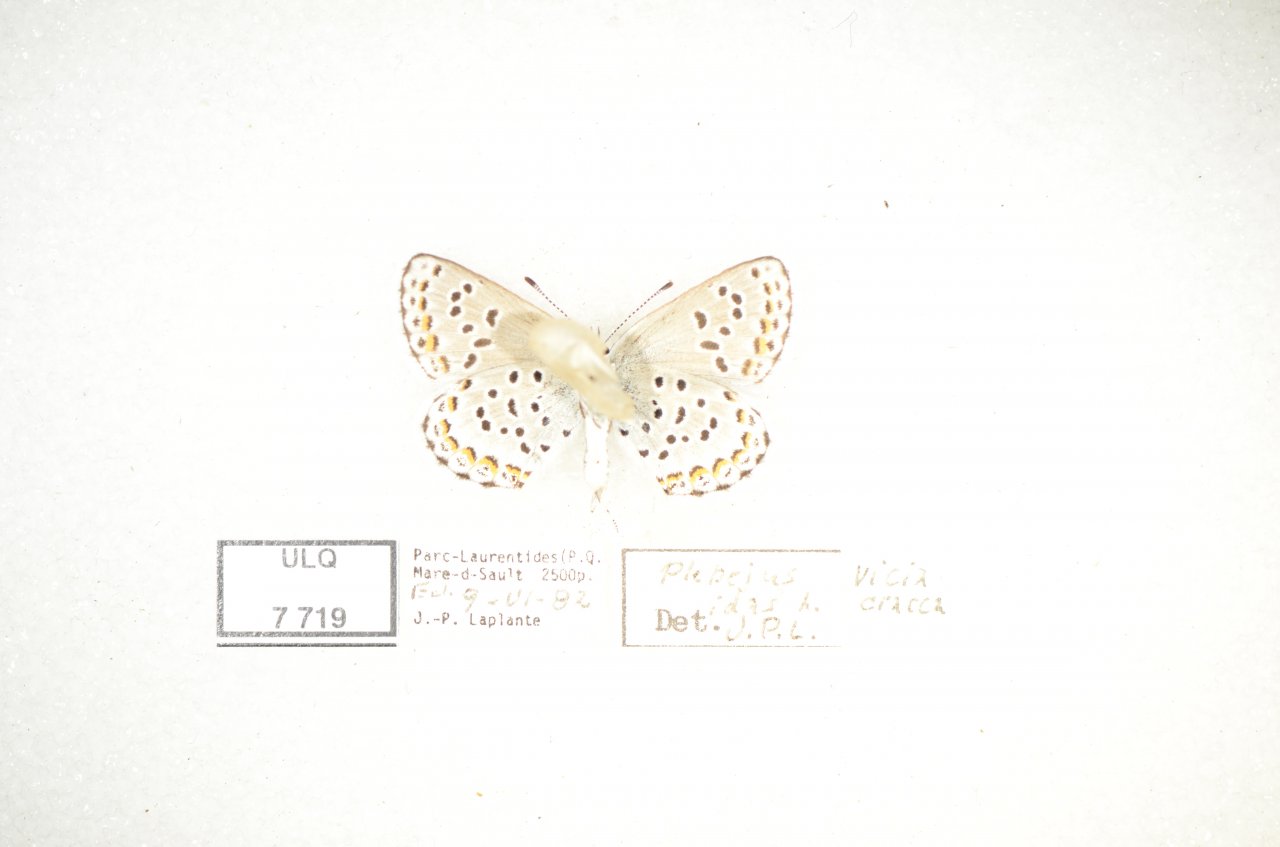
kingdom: Animalia
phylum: Arthropoda
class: Insecta
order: Lepidoptera
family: Lycaenidae
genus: Lycaeides
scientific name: Lycaeides idas
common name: Northern Blue
